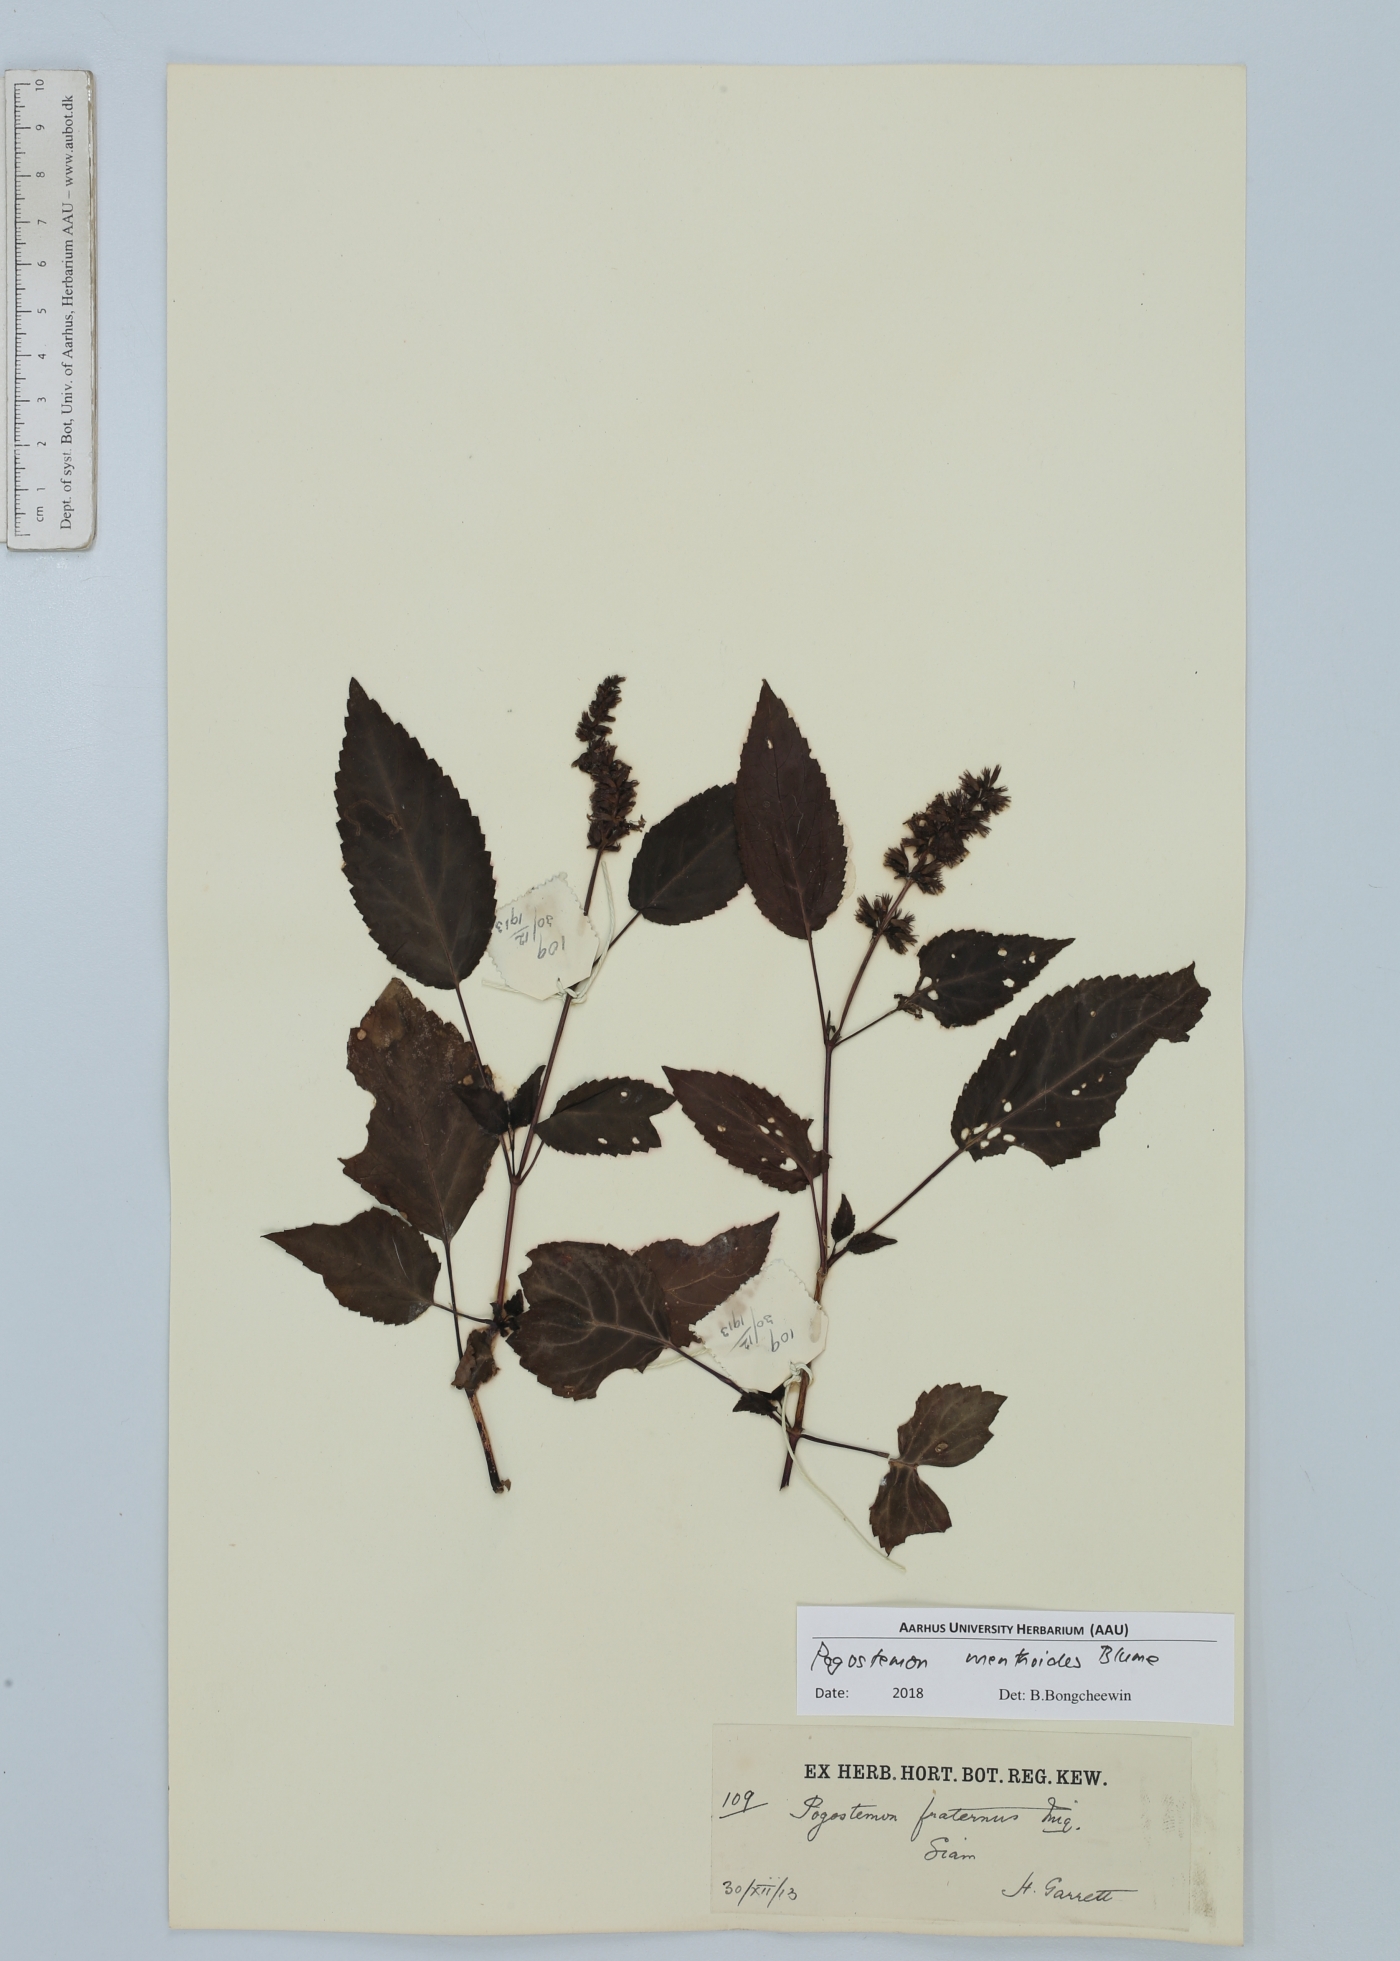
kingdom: Plantae
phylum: Tracheophyta
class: Magnoliopsida
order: Lamiales
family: Lamiaceae
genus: Pogostemon
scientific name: Pogostemon menthoides
